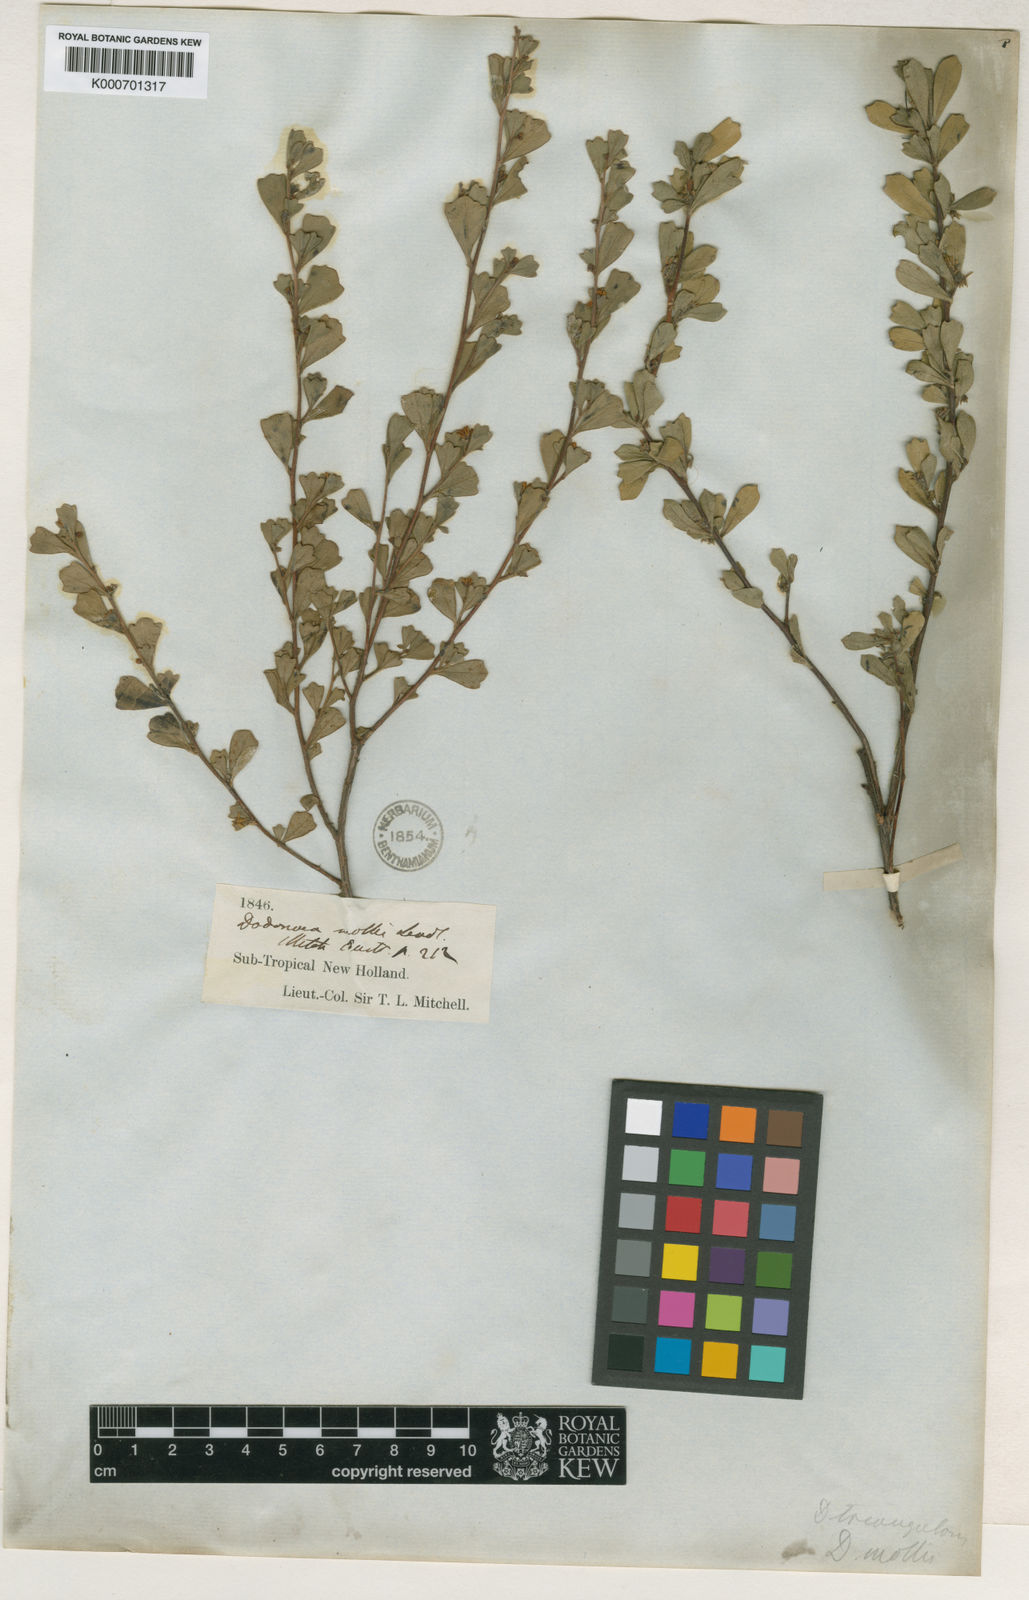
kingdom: Plantae
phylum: Tracheophyta
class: Magnoliopsida
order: Sapindales
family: Sapindaceae
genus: Dodonaea
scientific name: Dodonaea triangularis
